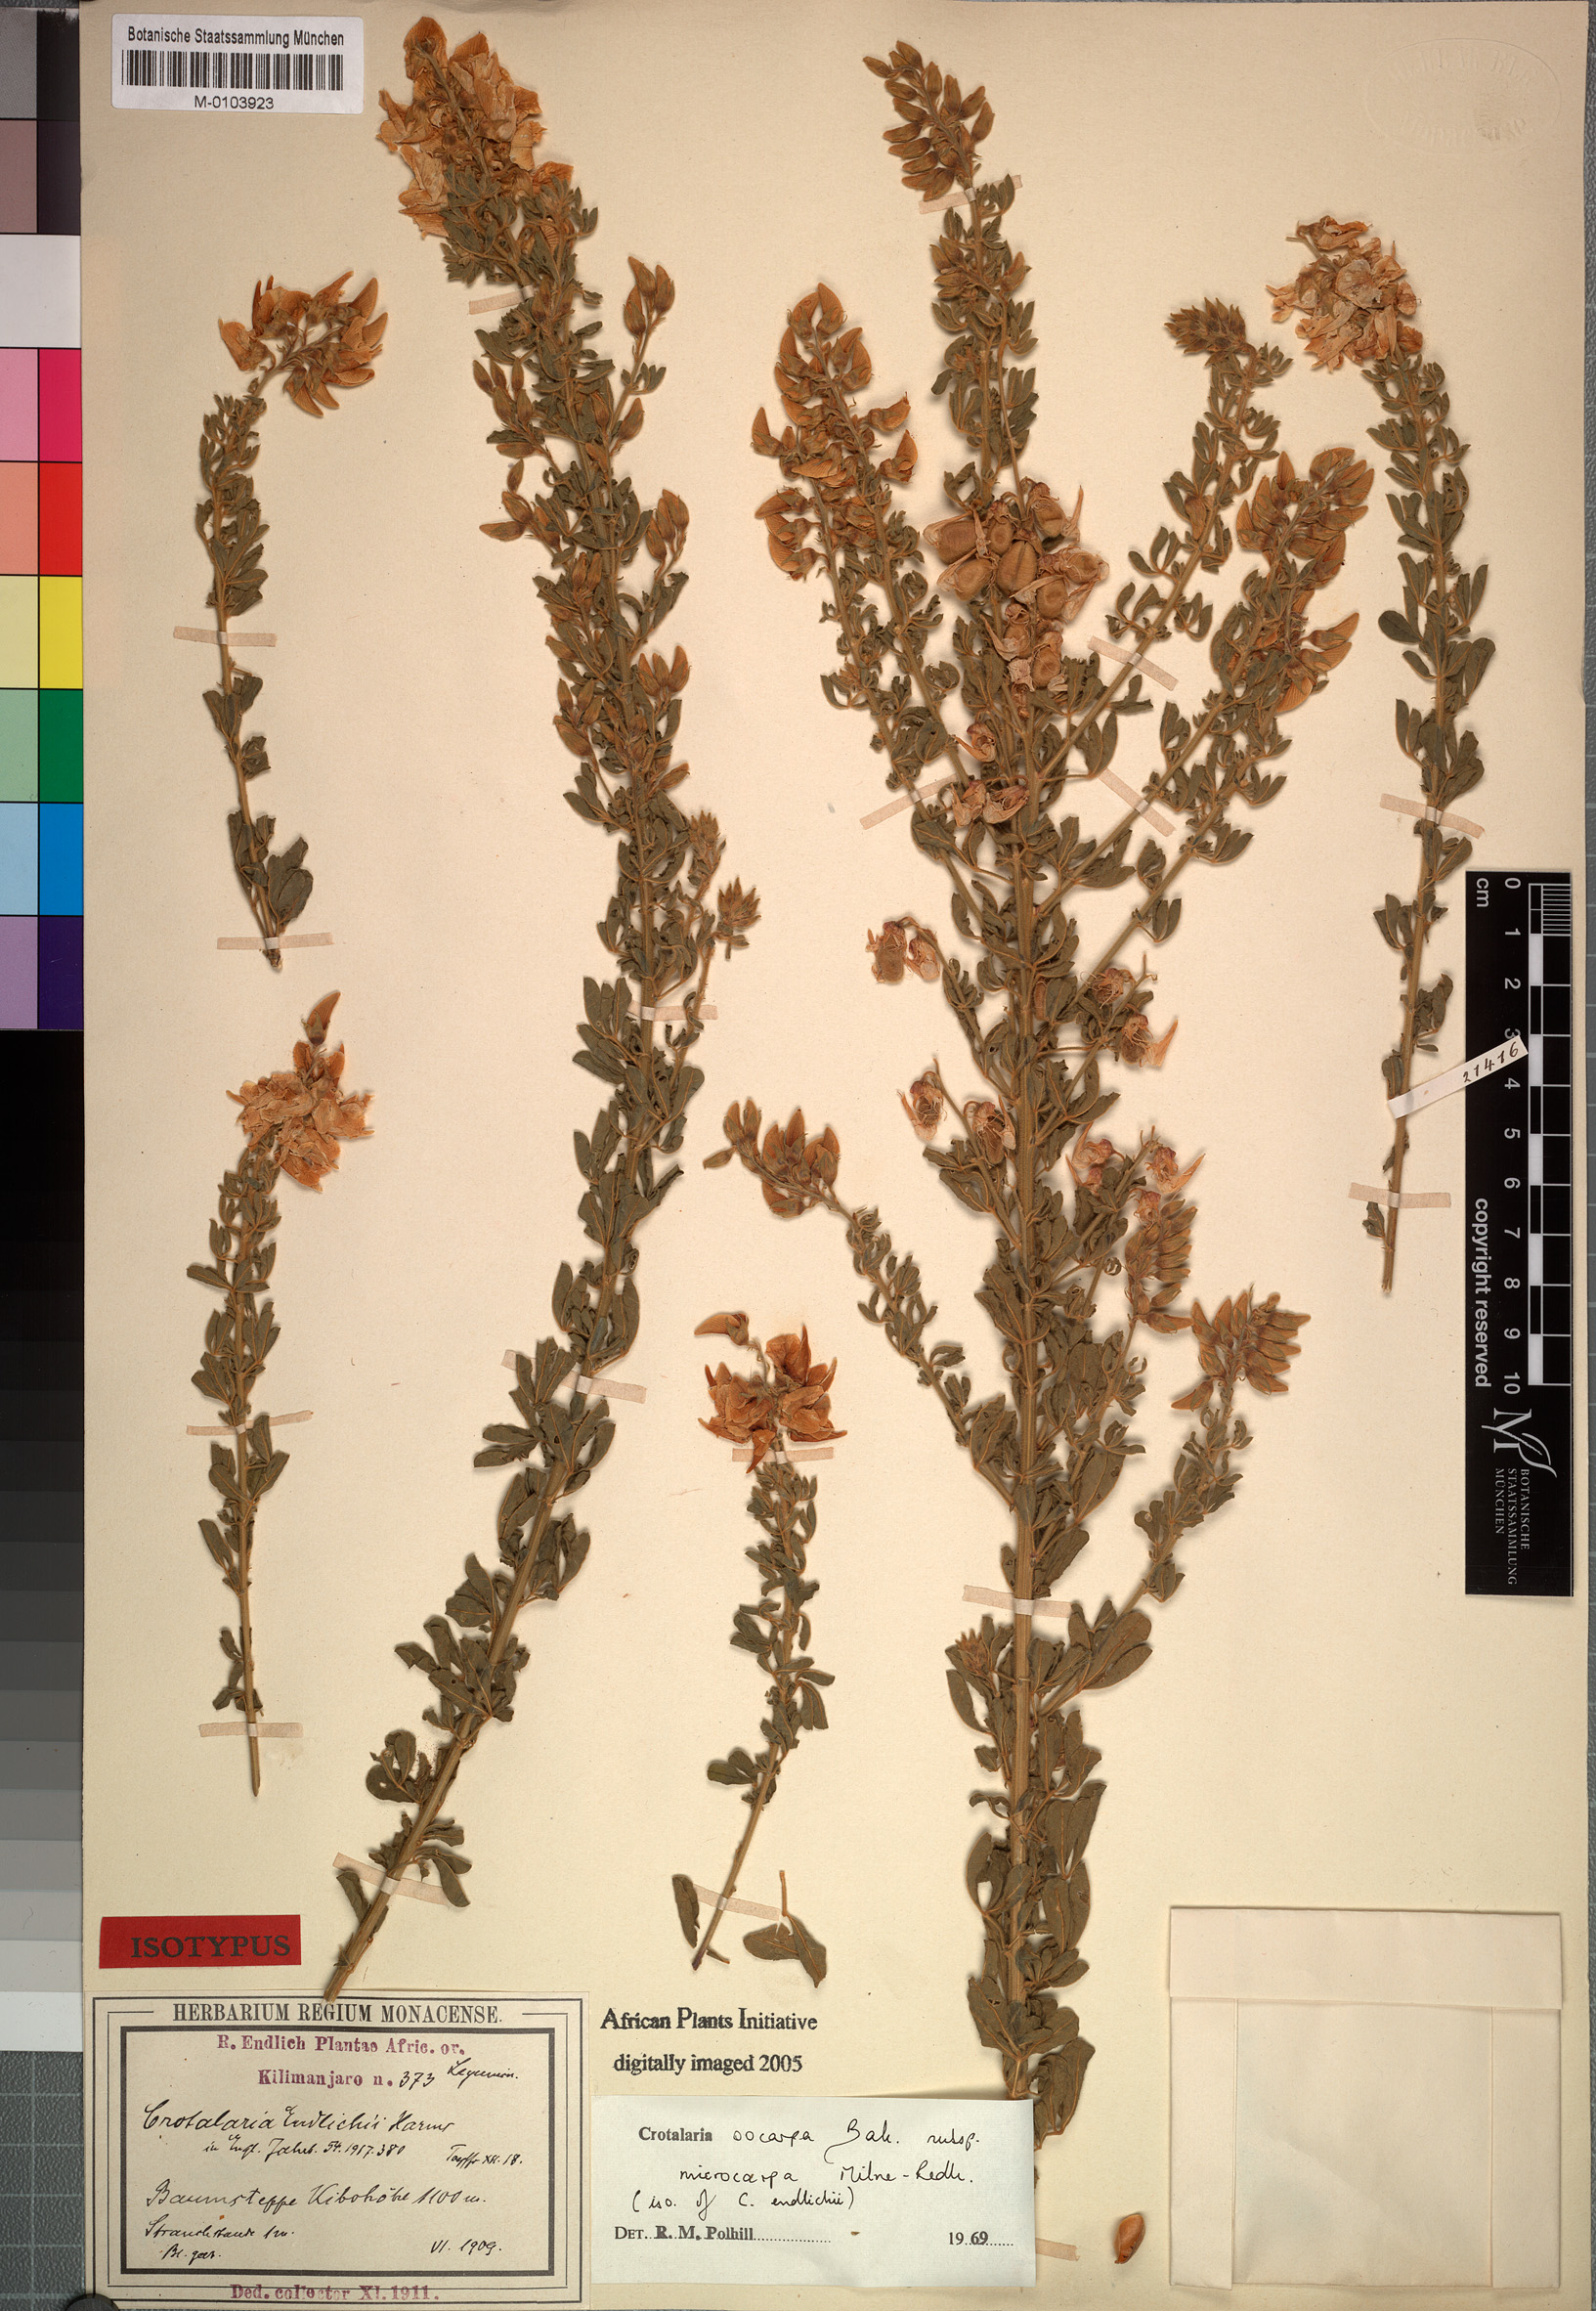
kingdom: Plantae
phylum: Tracheophyta
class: Magnoliopsida
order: Fabales
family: Fabaceae
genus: Crotalaria
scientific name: Crotalaria oocarpa
